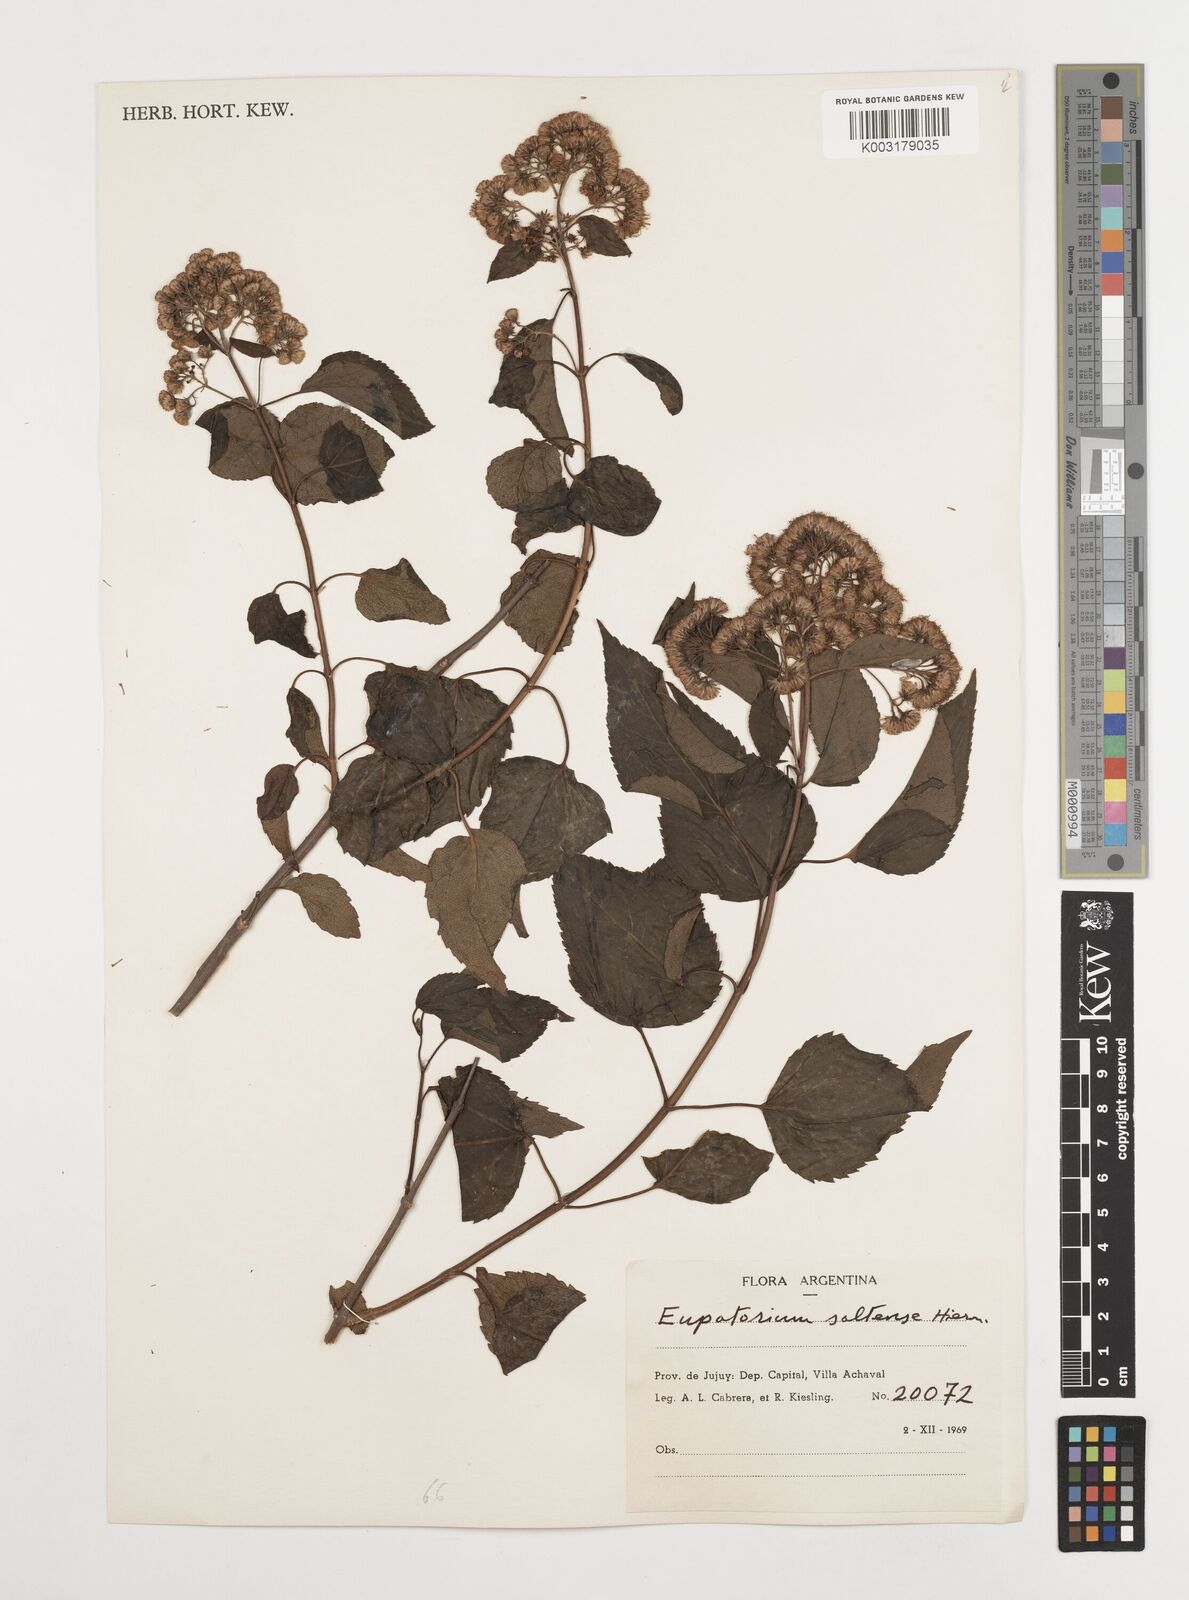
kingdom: Plantae
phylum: Tracheophyta
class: Magnoliopsida
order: Asterales
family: Asteraceae
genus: Kaunia
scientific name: Kaunia saltensis
